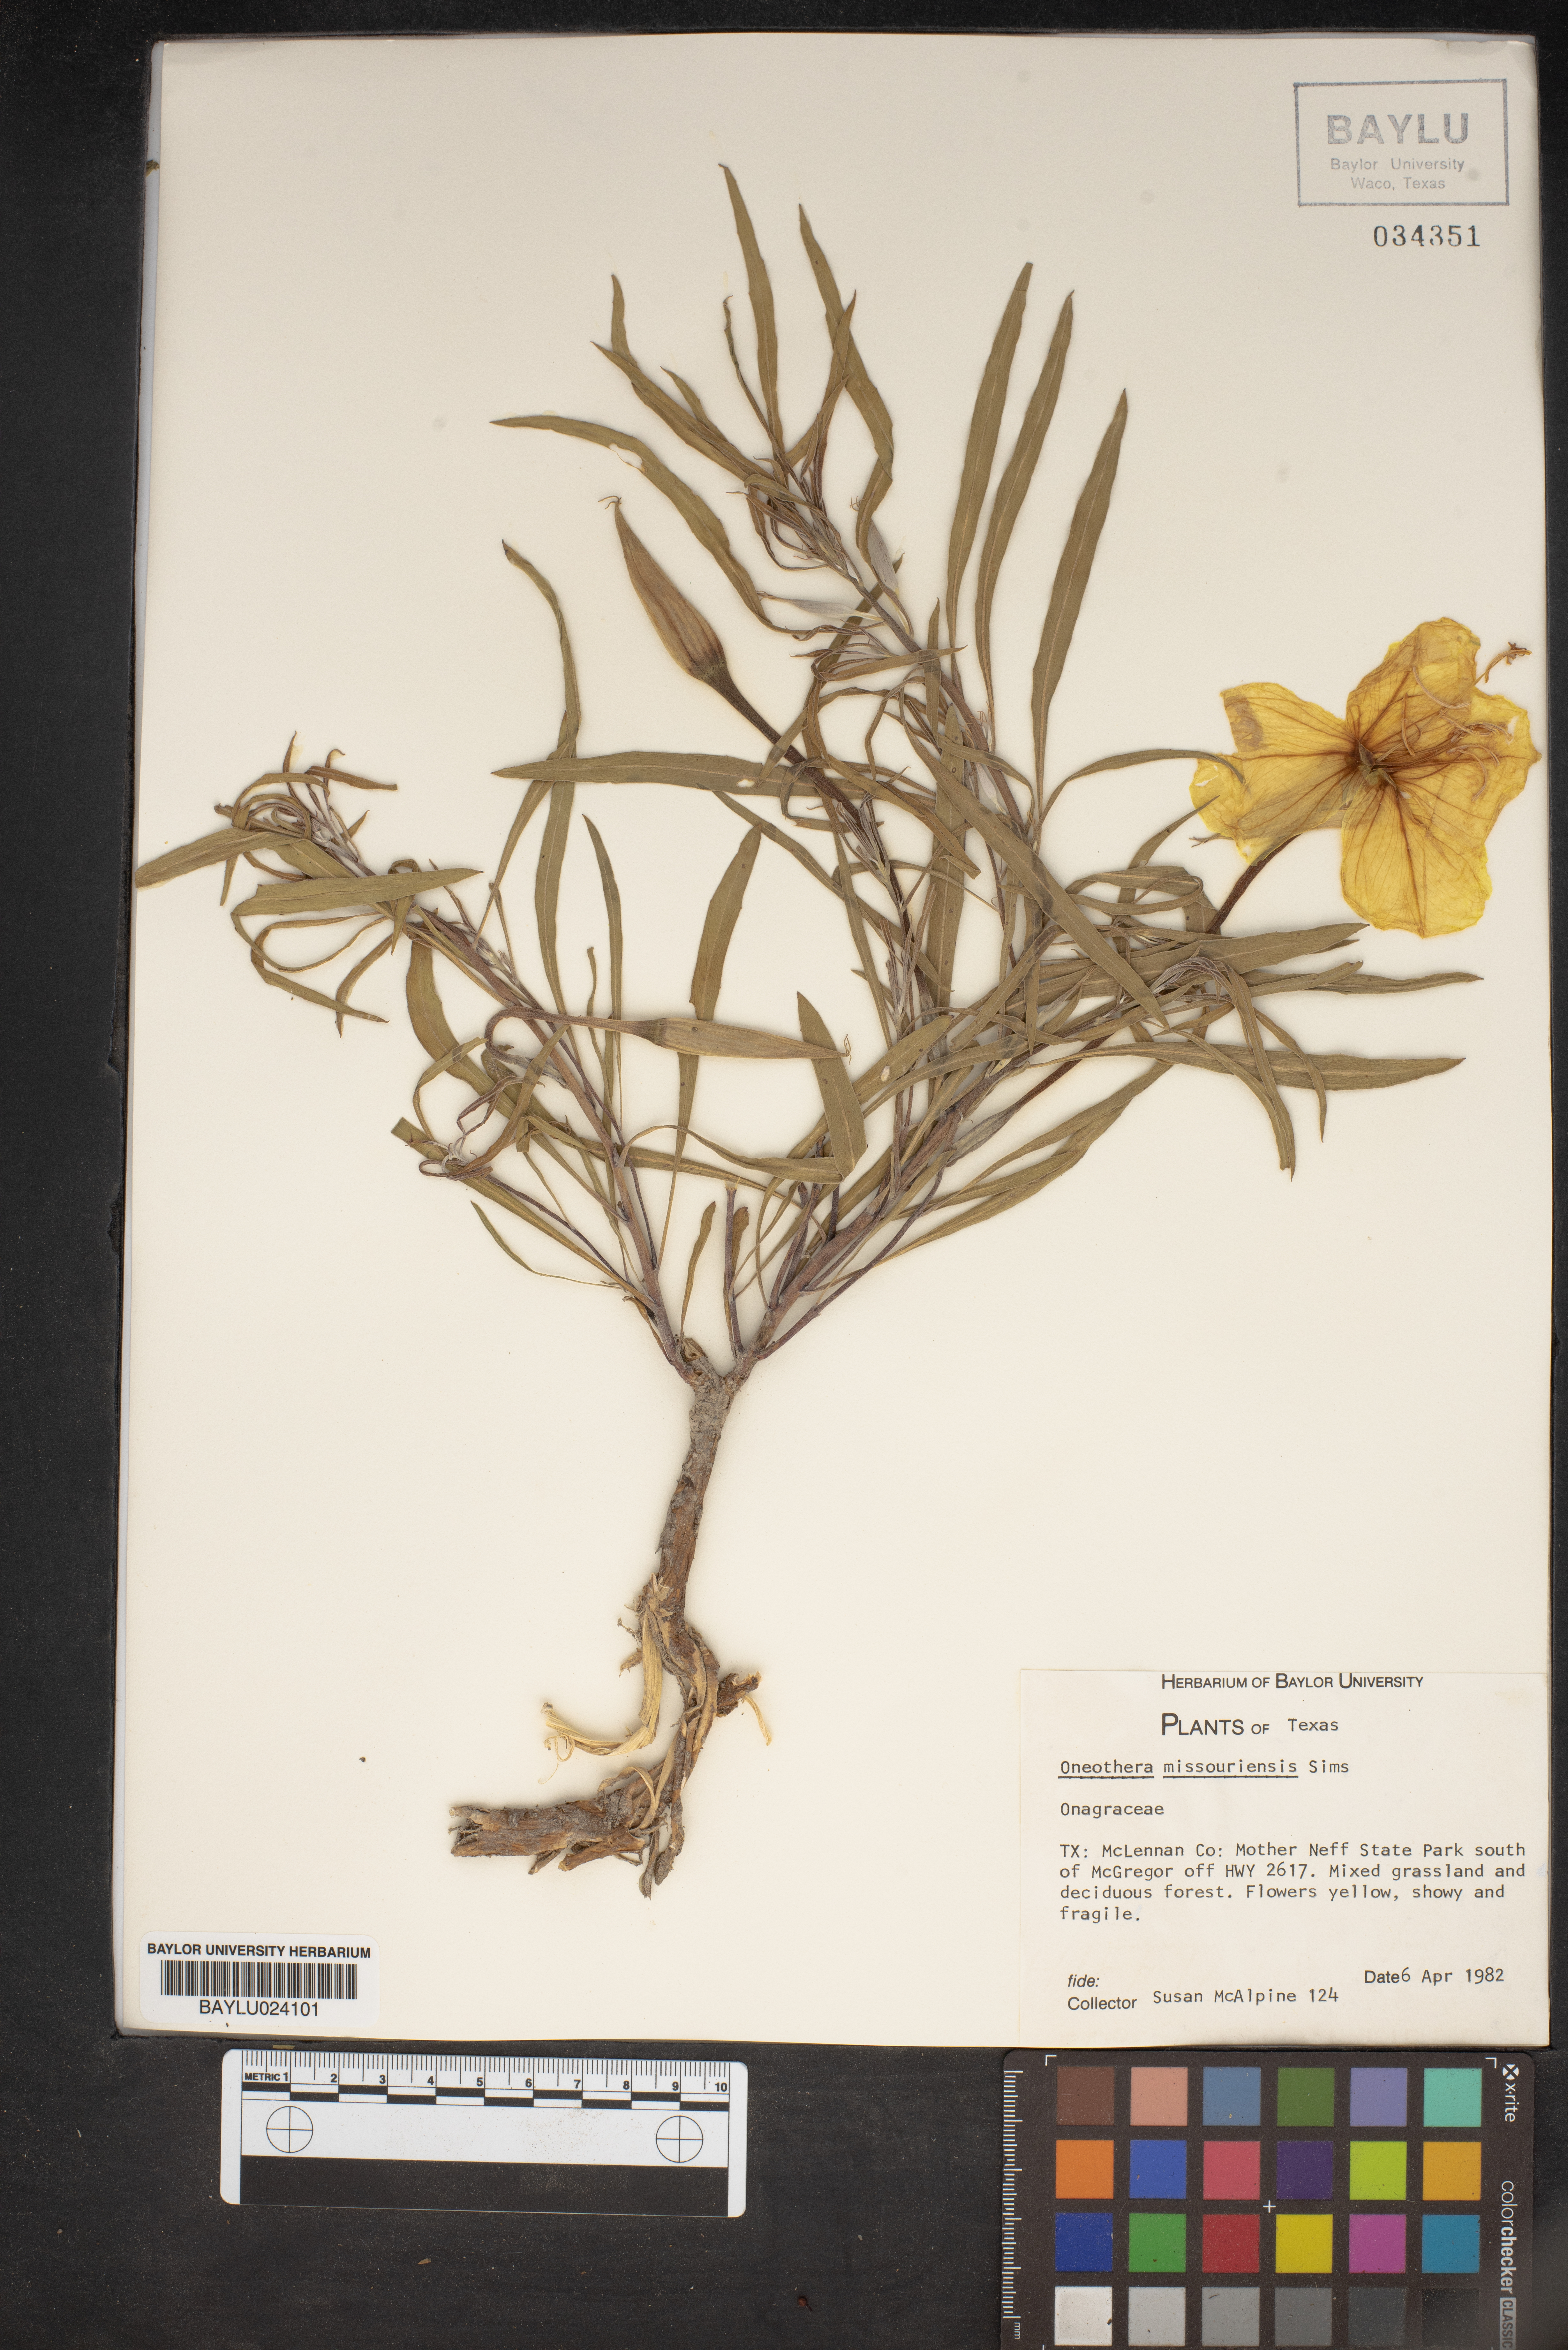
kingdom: Plantae
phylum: Tracheophyta
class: Magnoliopsida
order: Myrtales
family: Onagraceae
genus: Oenothera
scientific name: Oenothera macrocarpa
